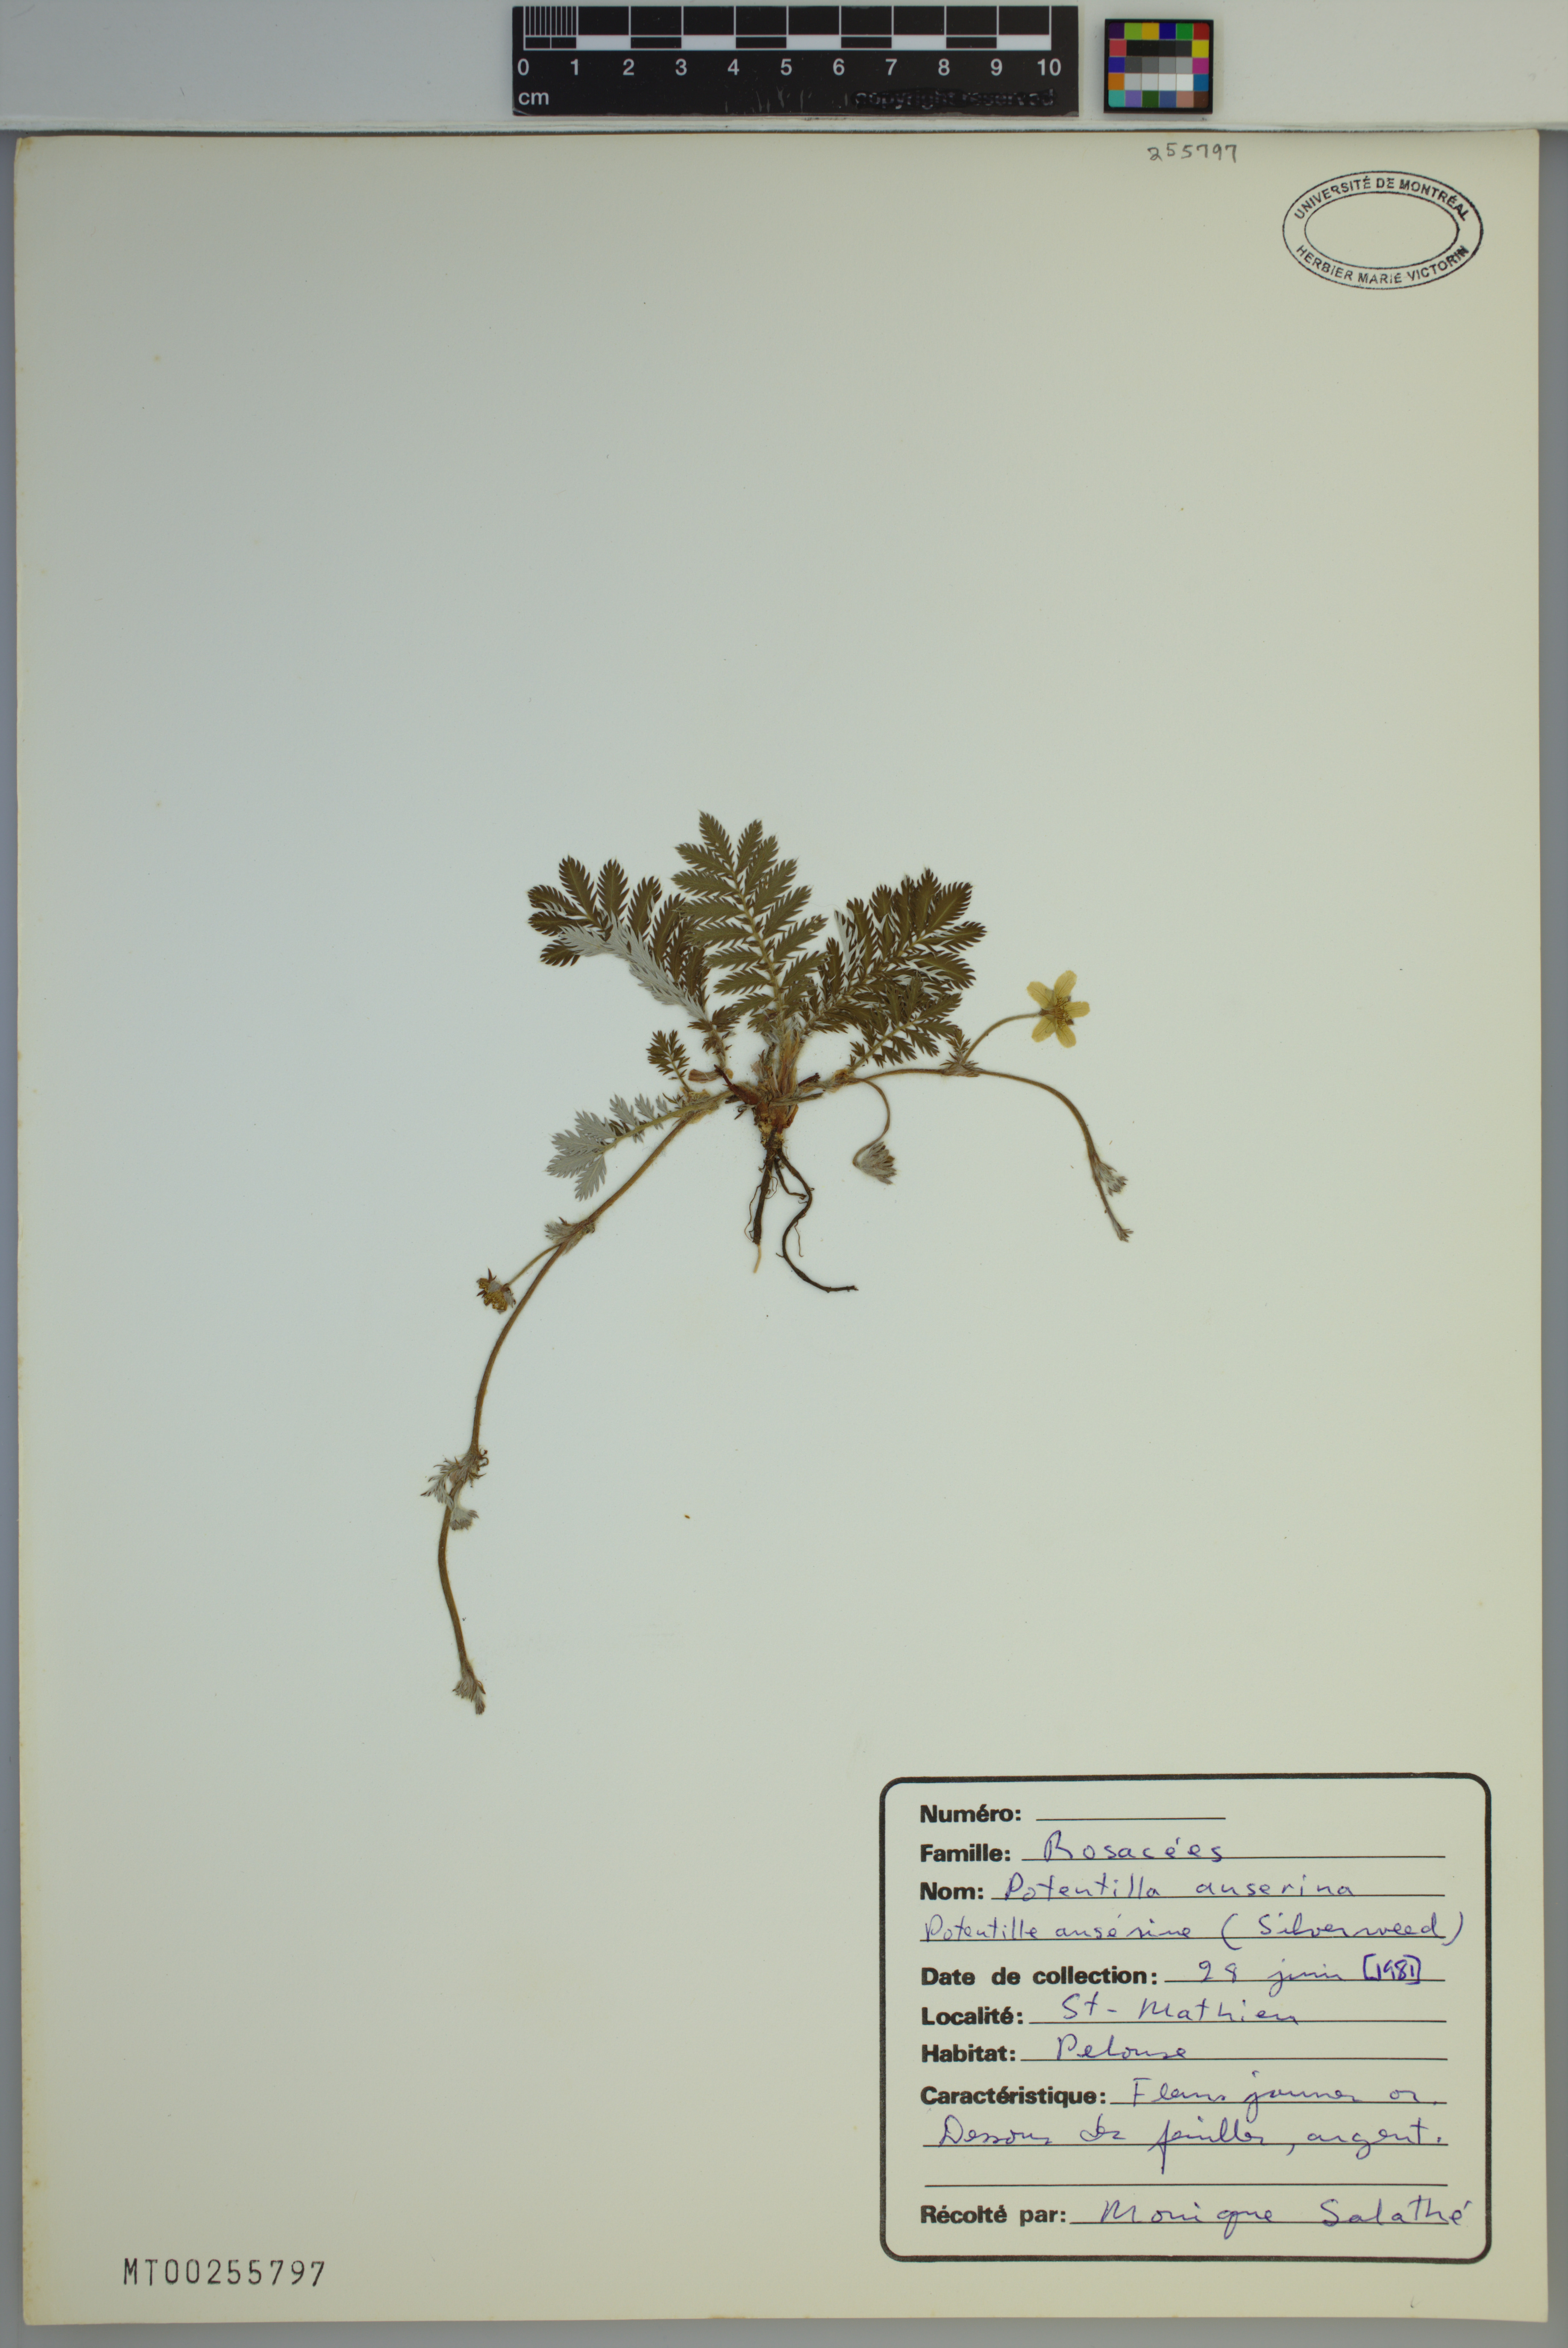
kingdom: Plantae
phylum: Tracheophyta
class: Magnoliopsida
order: Rosales
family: Rosaceae
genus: Argentina
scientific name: Argentina anserina
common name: Common silverweed
